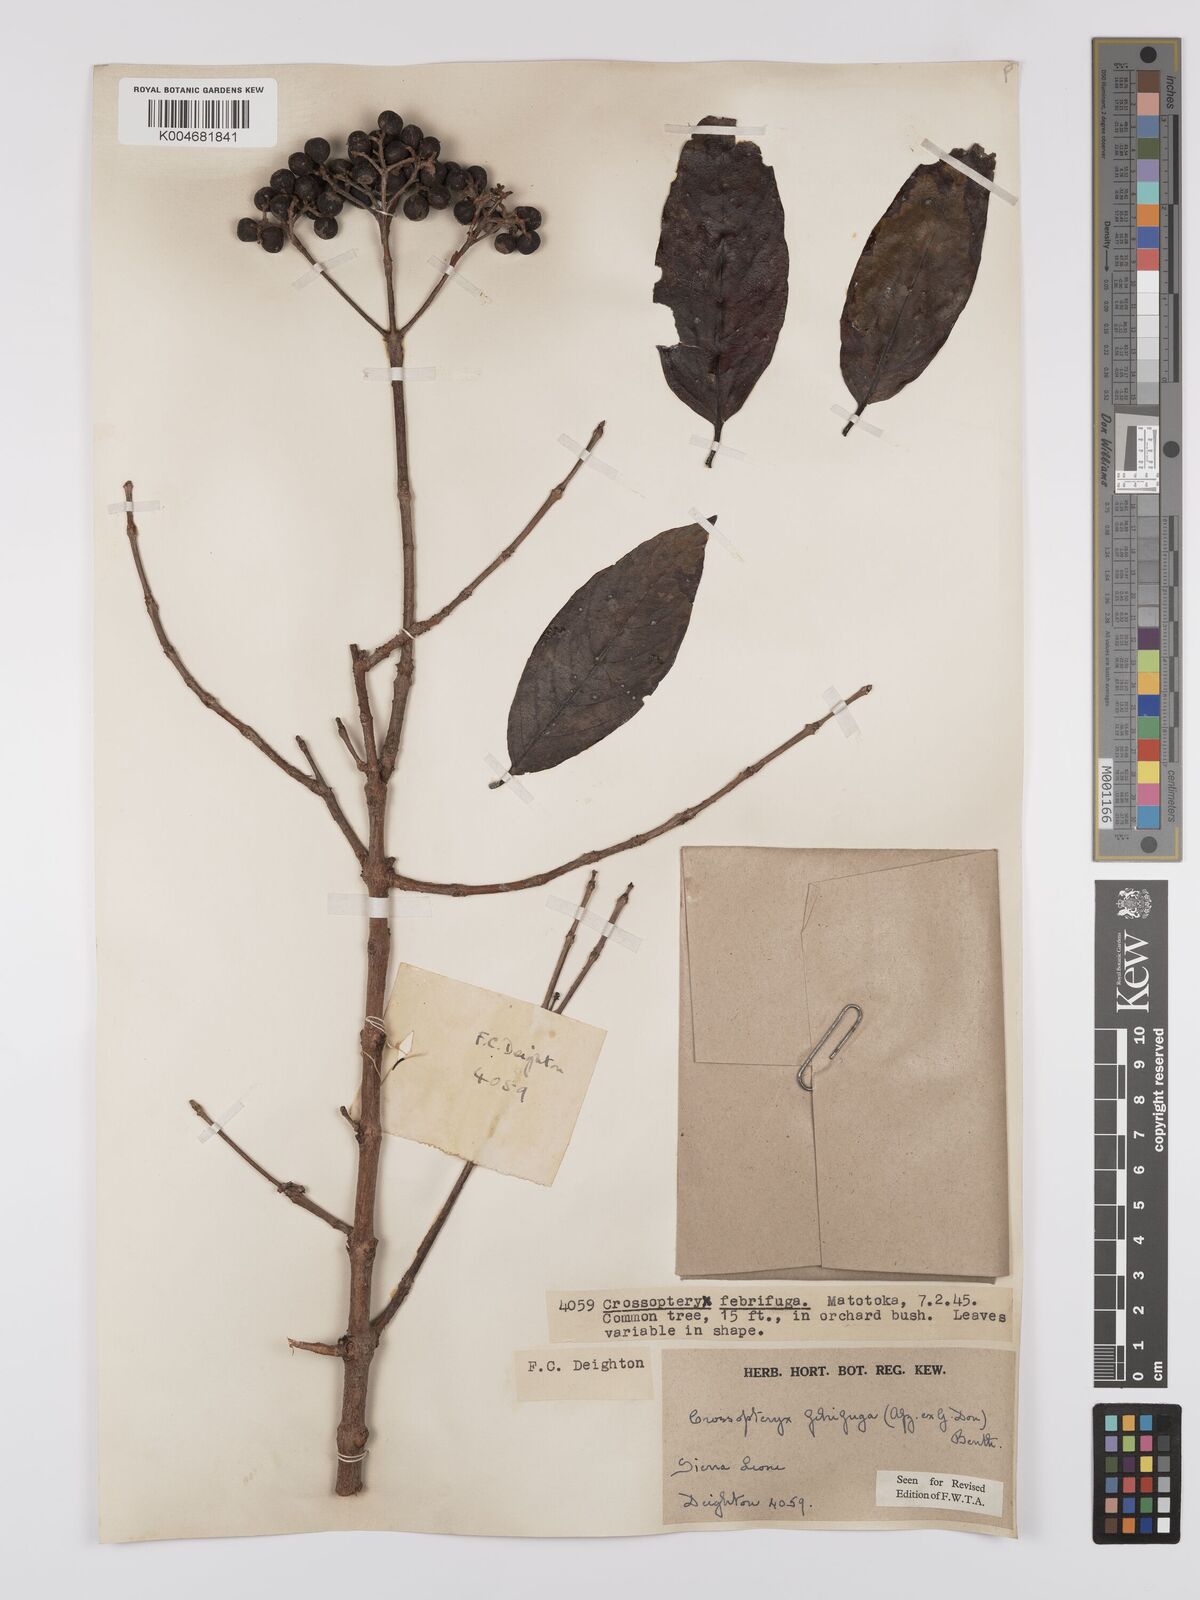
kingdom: Plantae
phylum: Tracheophyta
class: Magnoliopsida
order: Gentianales
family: Rubiaceae
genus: Crossopteryx
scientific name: Crossopteryx febrifuga
